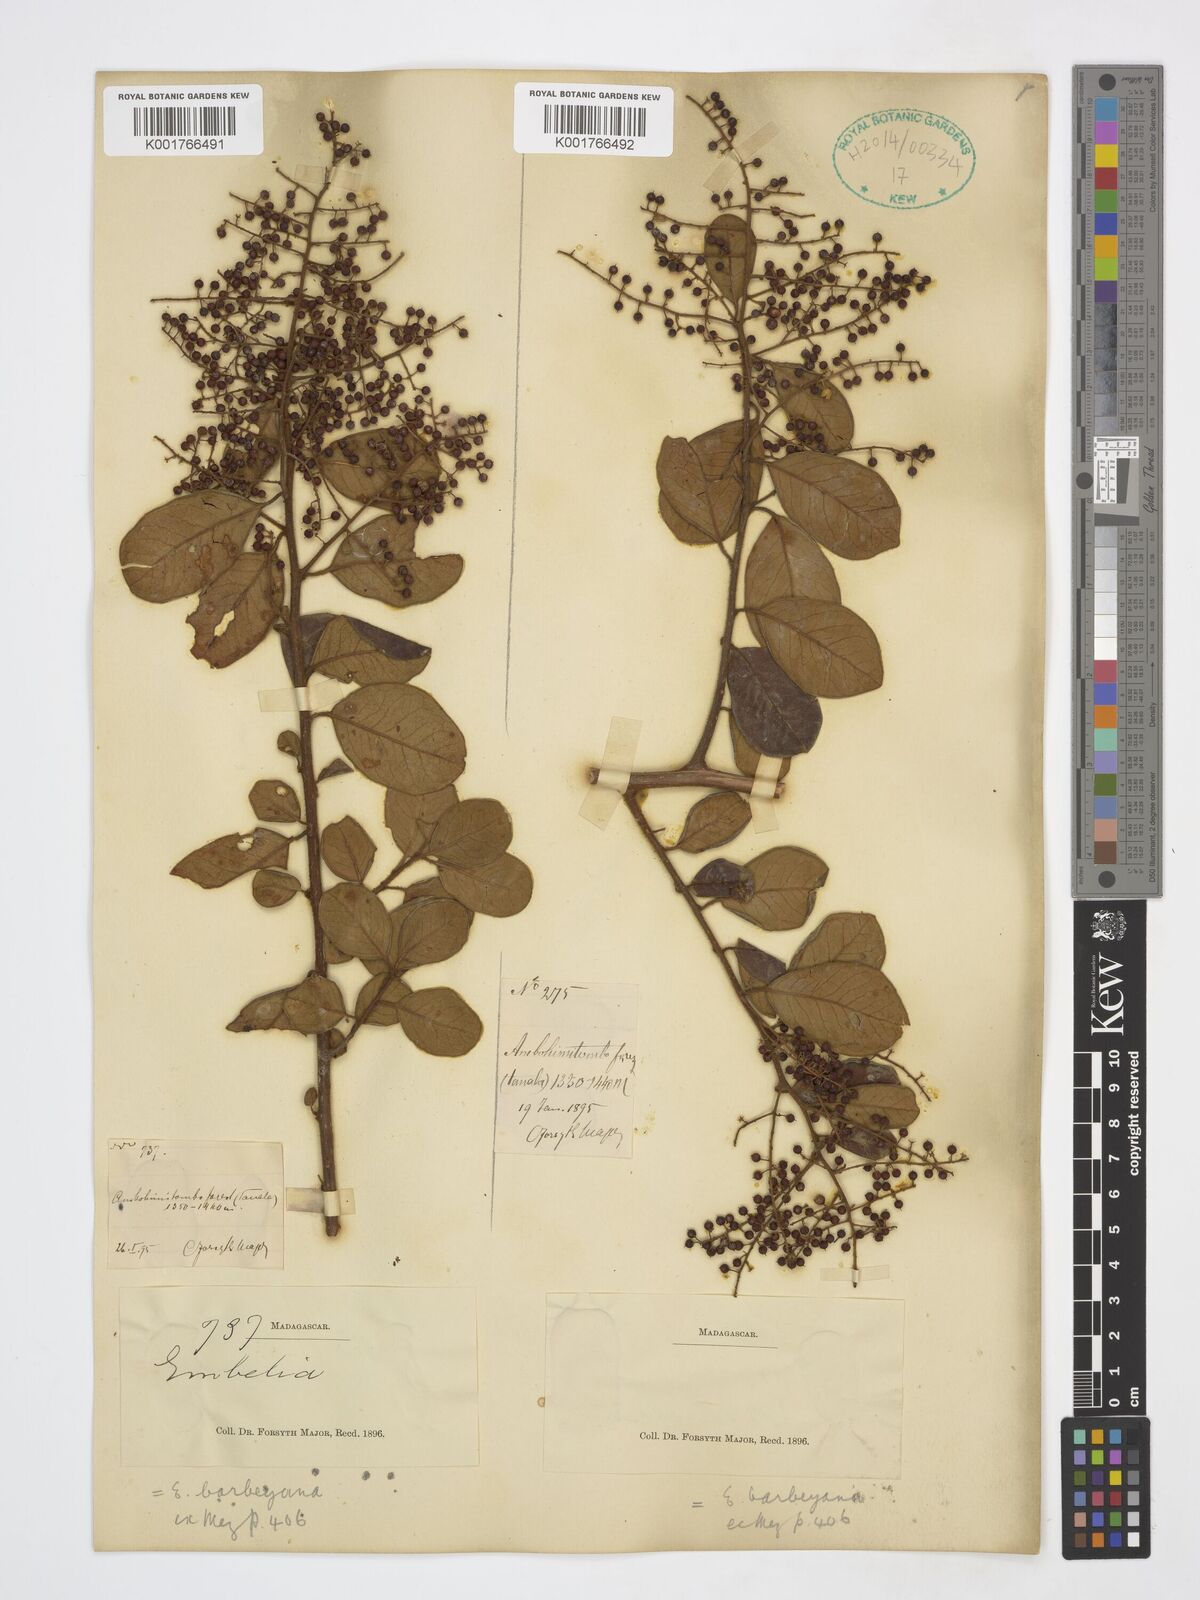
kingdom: Plantae
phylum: Tracheophyta
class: Magnoliopsida
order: Ericales
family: Primulaceae
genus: Embelia
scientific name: Embelia madagascariensis
